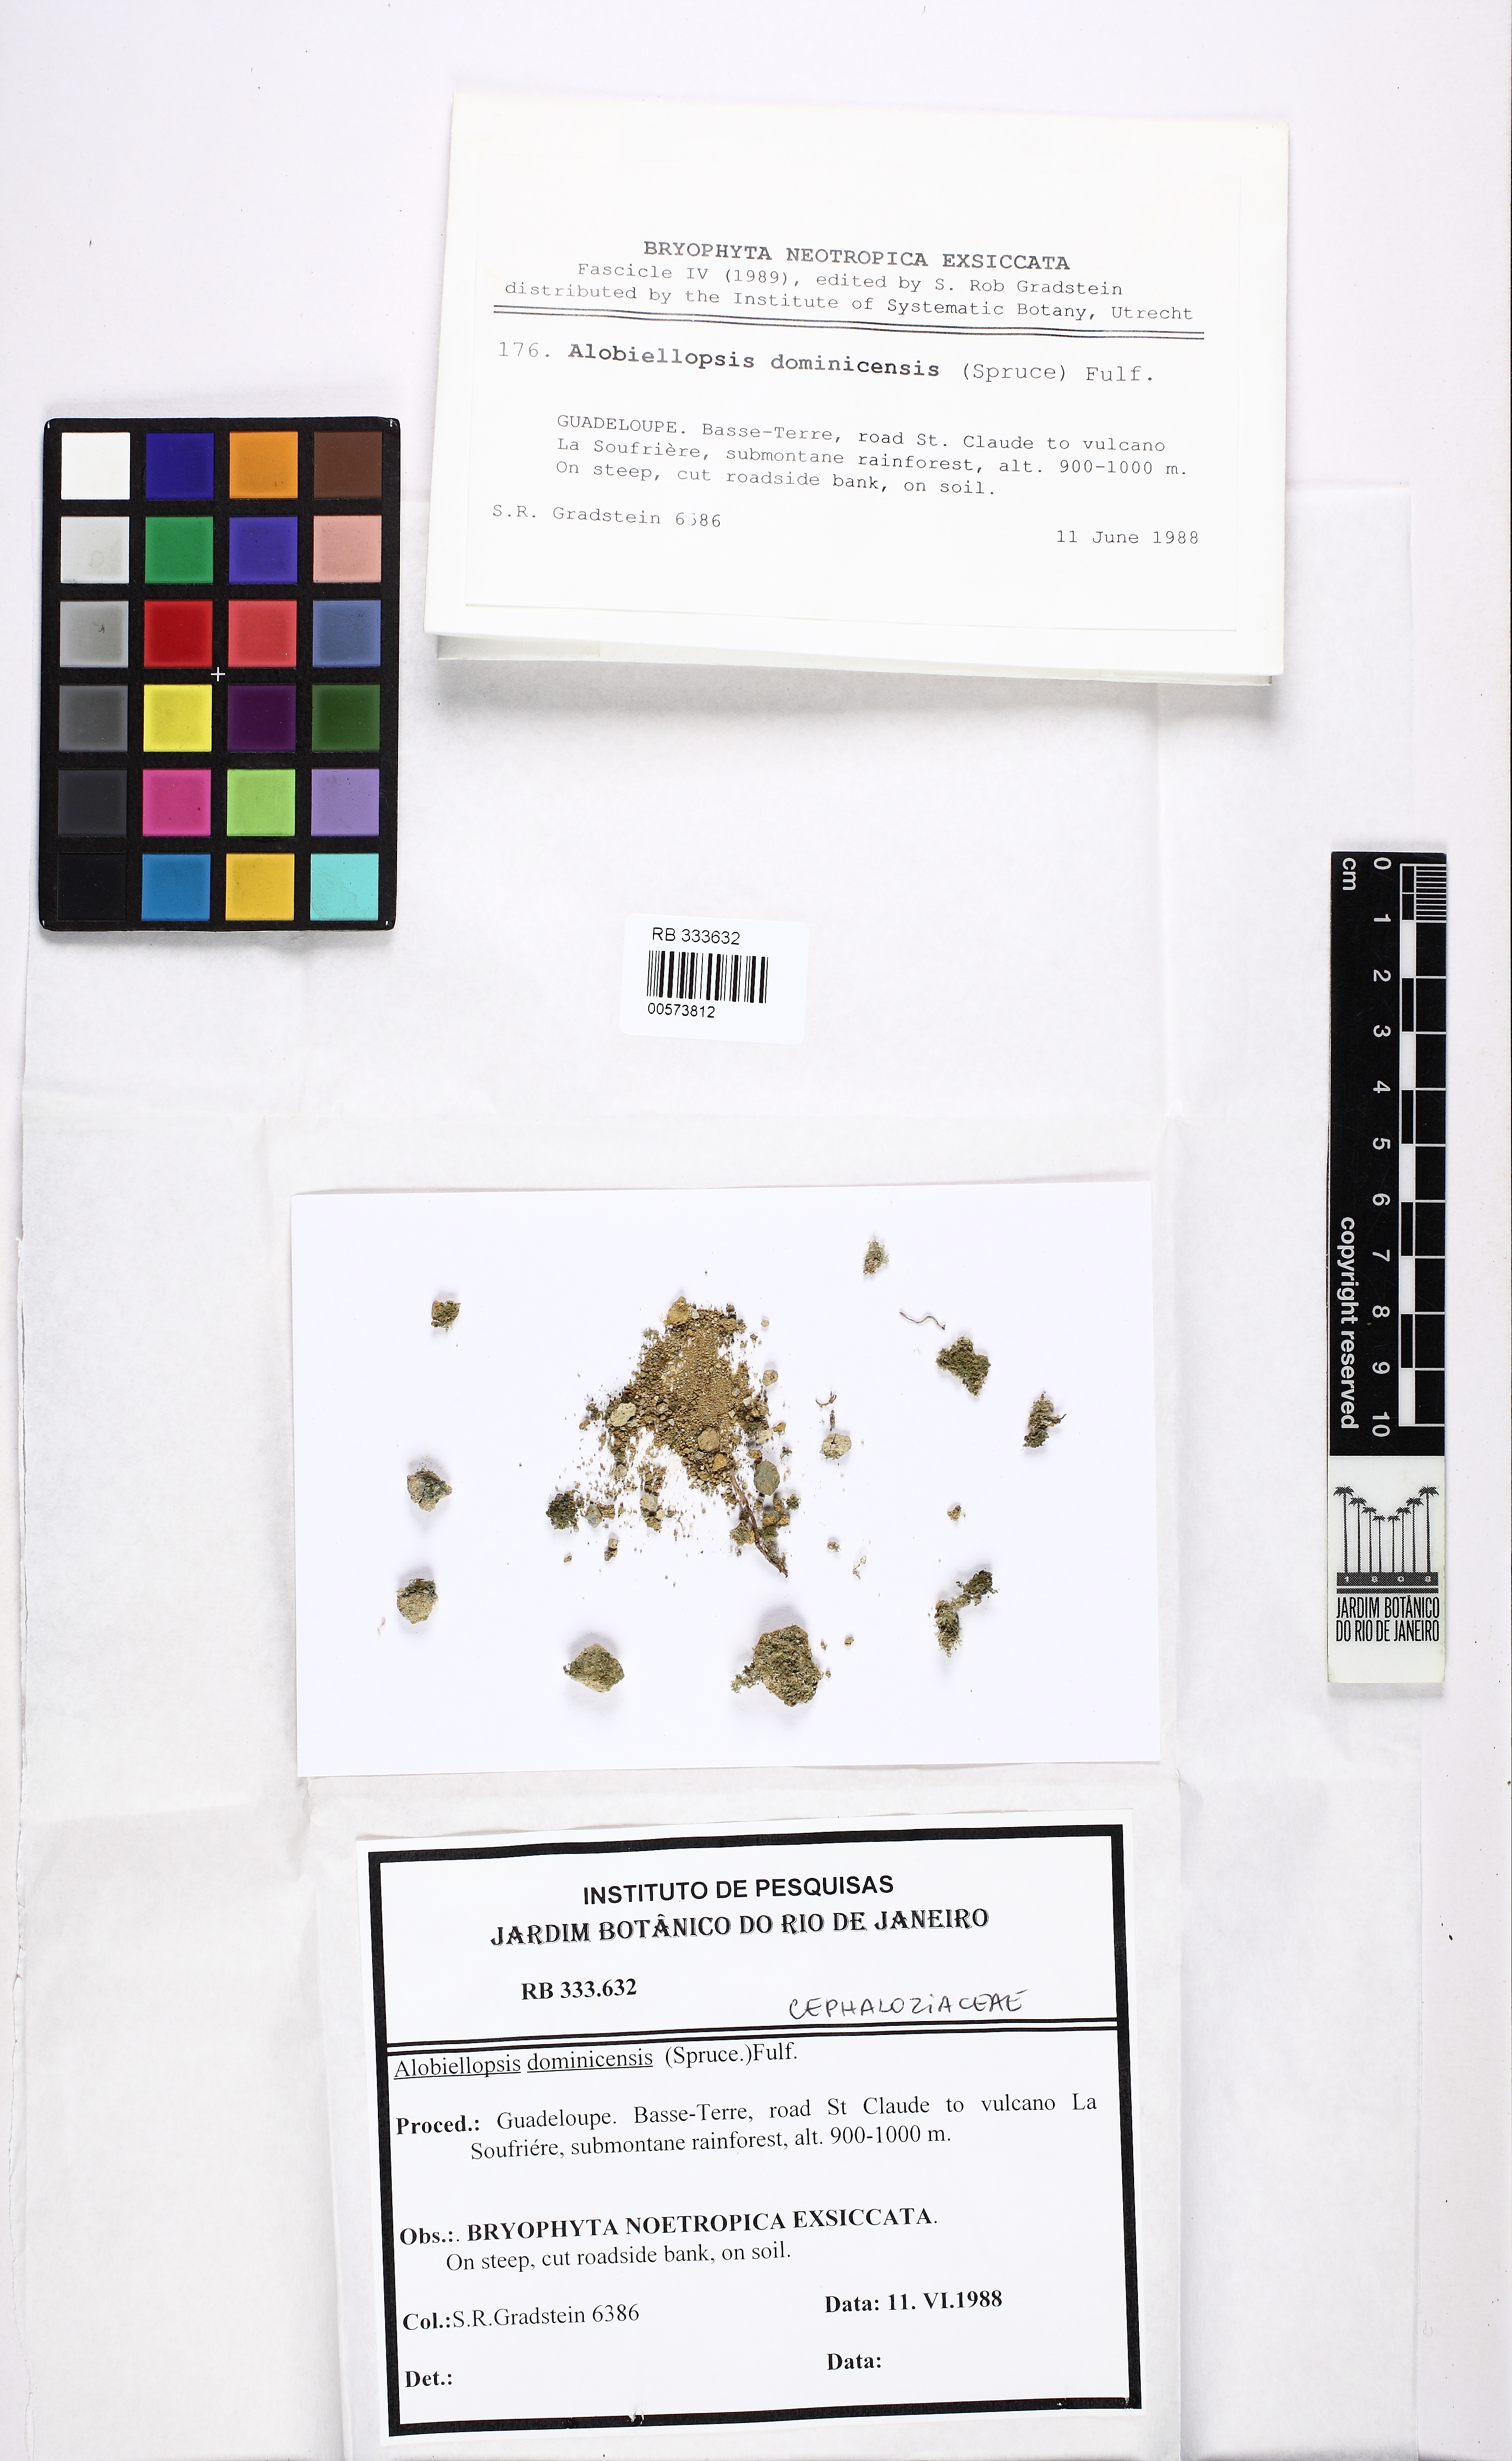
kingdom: Plantae
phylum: Marchantiophyta
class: Jungermanniopsida
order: Jungermanniales
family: Cephaloziaceae
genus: Alobiellopsis
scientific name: Alobiellopsis dominicensis
